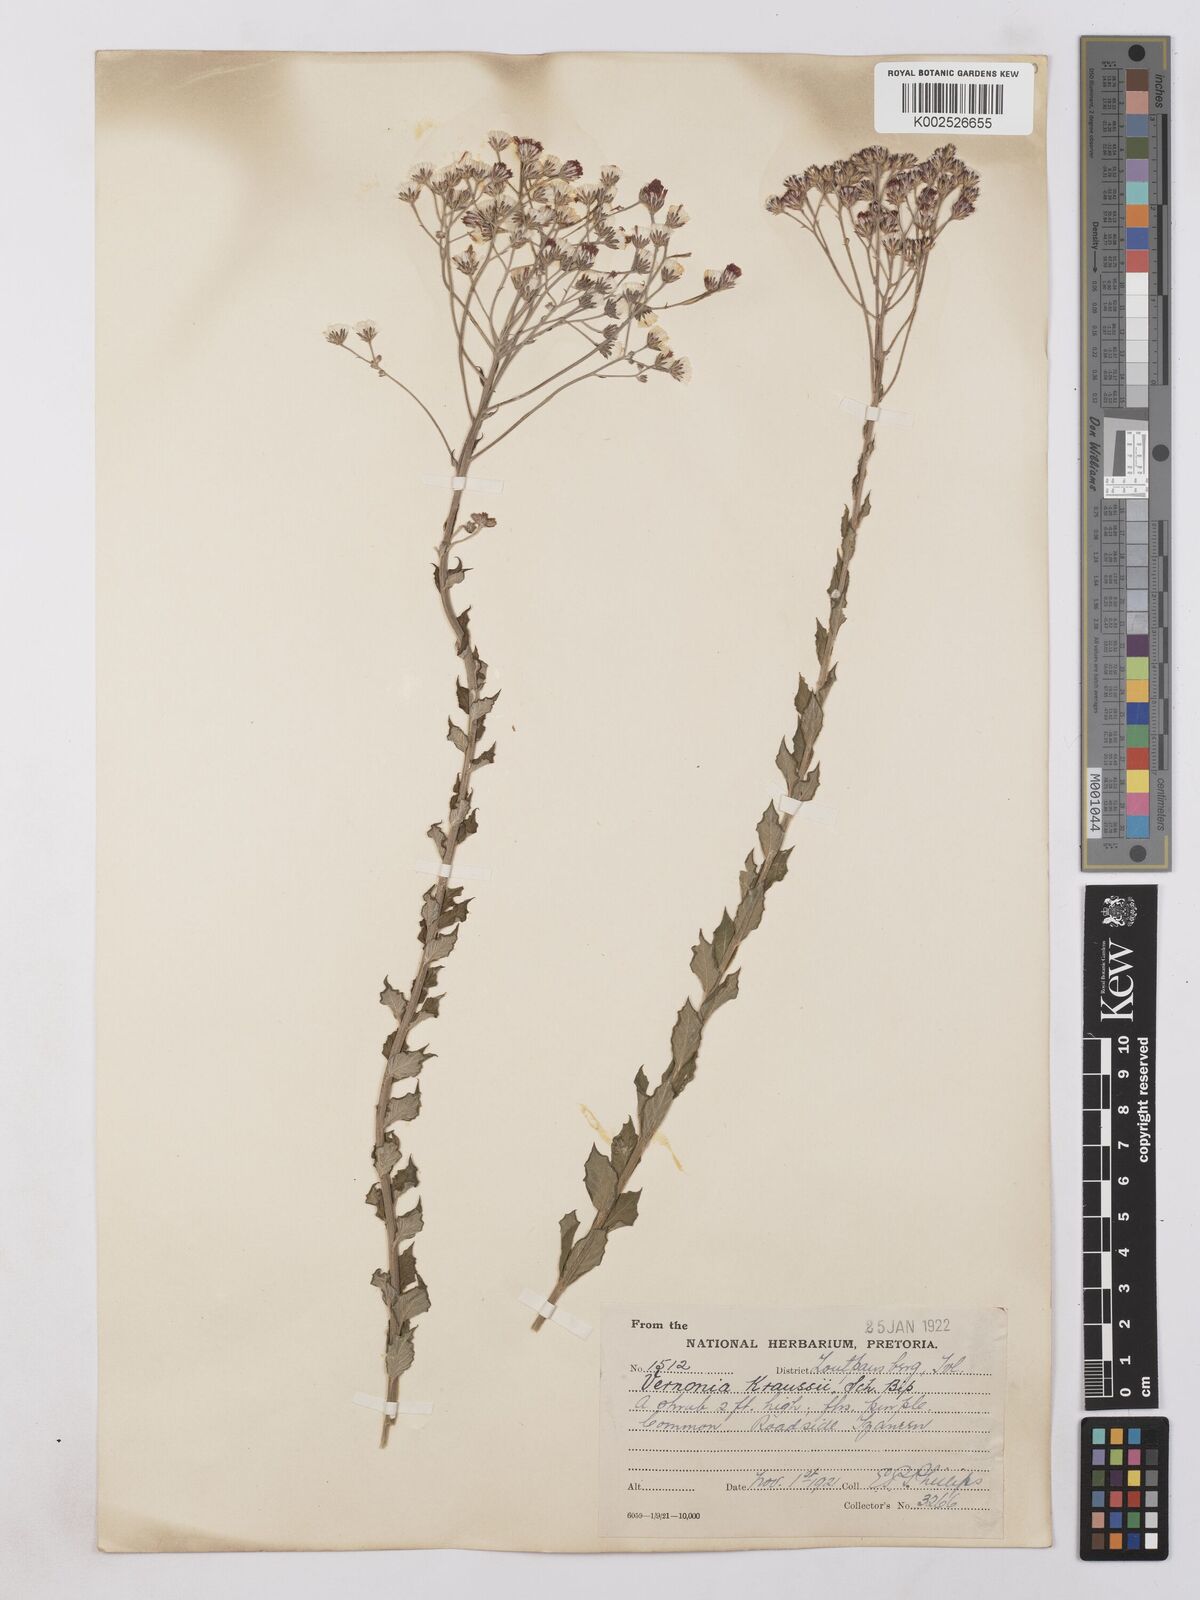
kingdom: Plantae
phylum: Tracheophyta
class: Magnoliopsida
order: Asterales
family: Asteraceae
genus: Hilliardiella
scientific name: Hilliardiella oligocephala
